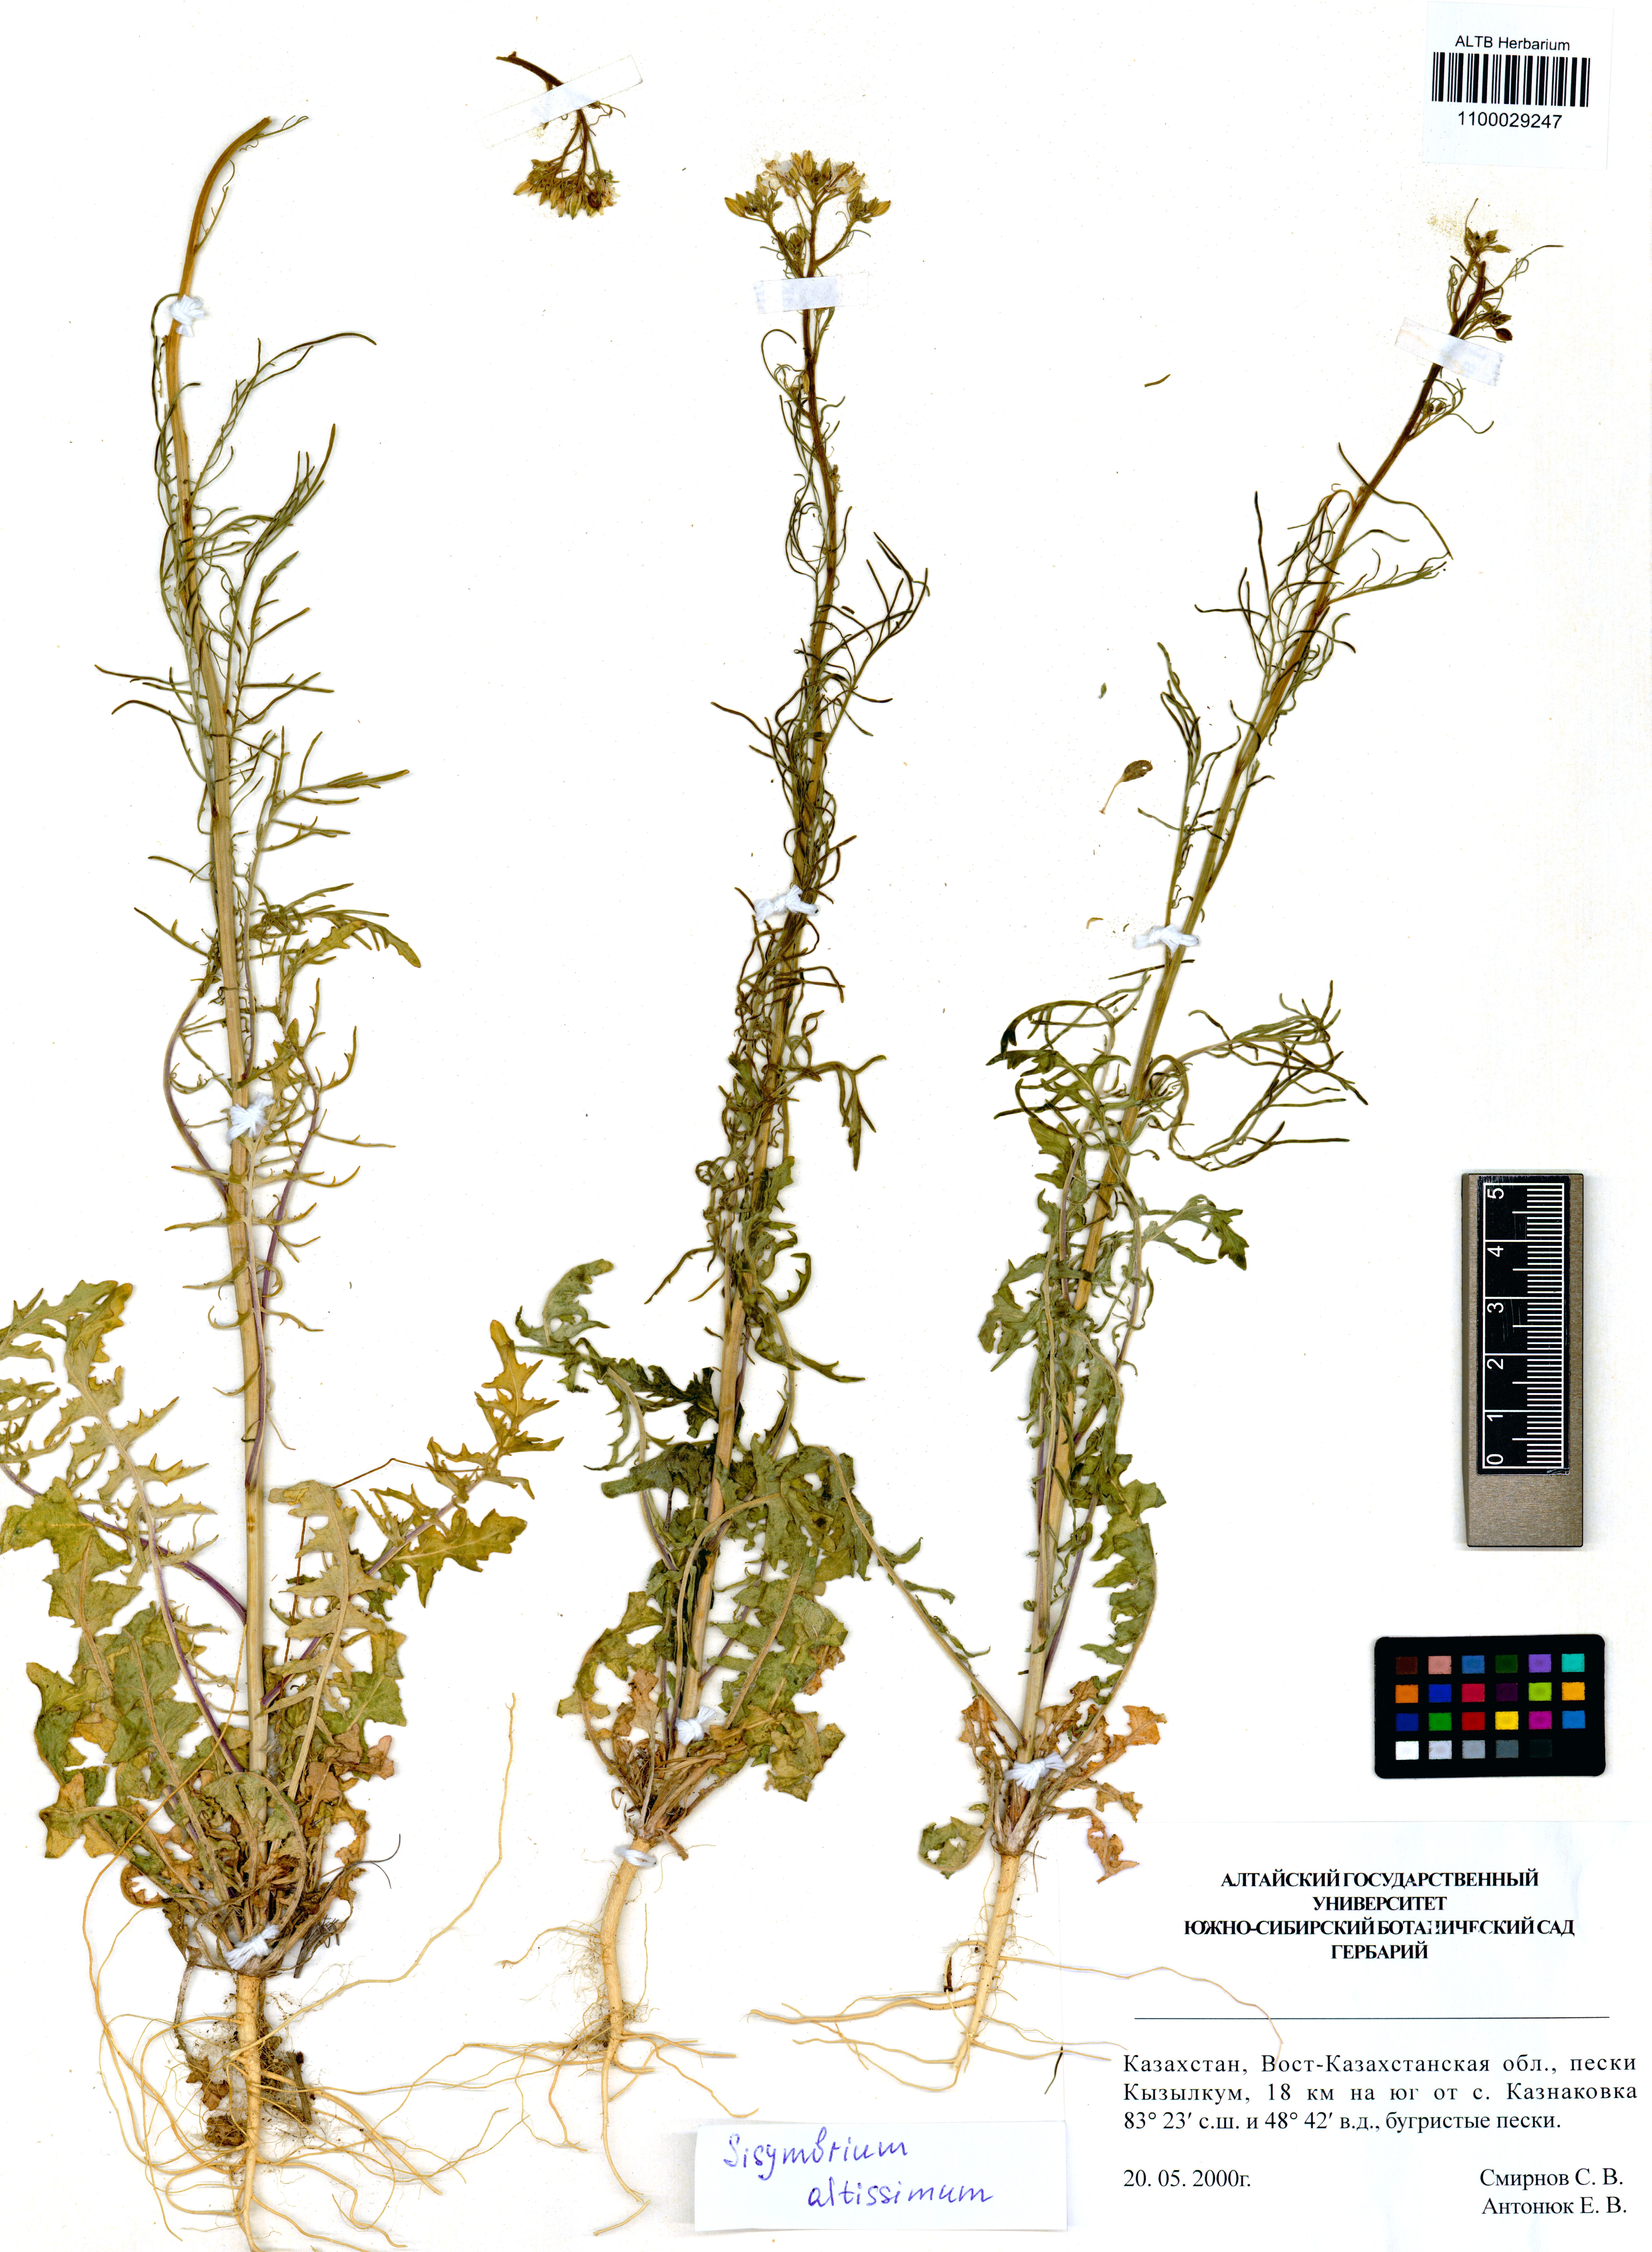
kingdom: Plantae
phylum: Tracheophyta
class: Magnoliopsida
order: Brassicales
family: Brassicaceae
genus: Sisymbrium
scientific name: Sisymbrium altissimum
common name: Tall rocket
